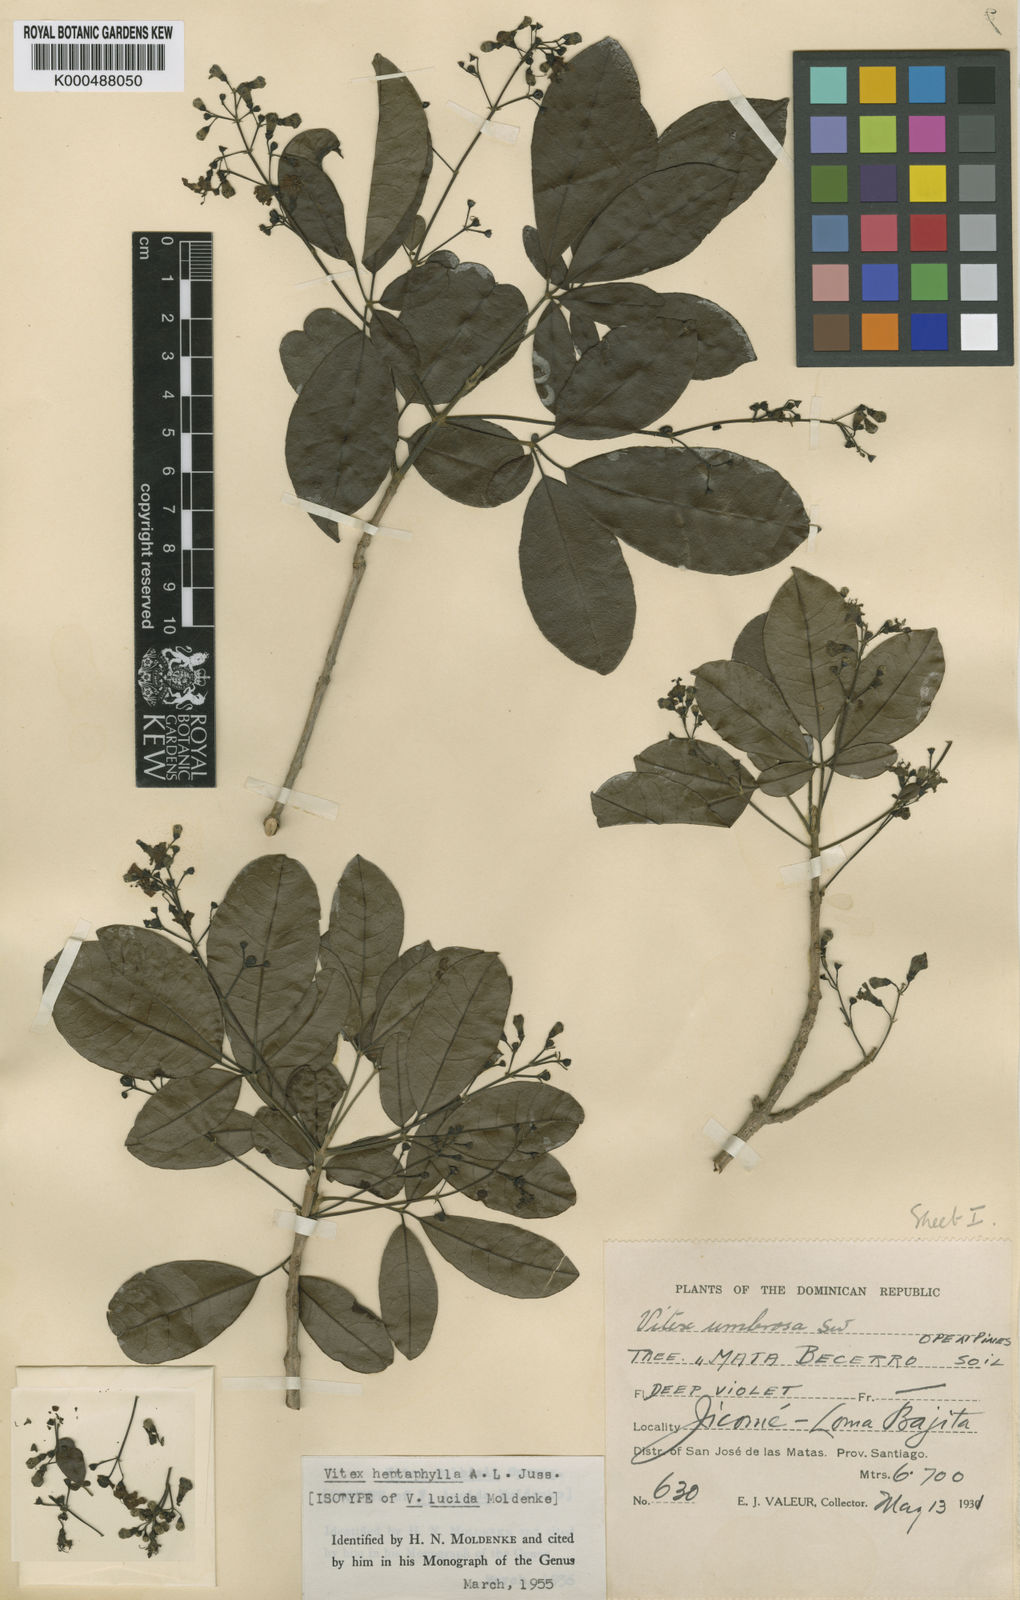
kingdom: Plantae
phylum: Tracheophyta
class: Magnoliopsida
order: Lamiales
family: Lamiaceae
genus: Vitex
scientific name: Vitex heptaphylla
